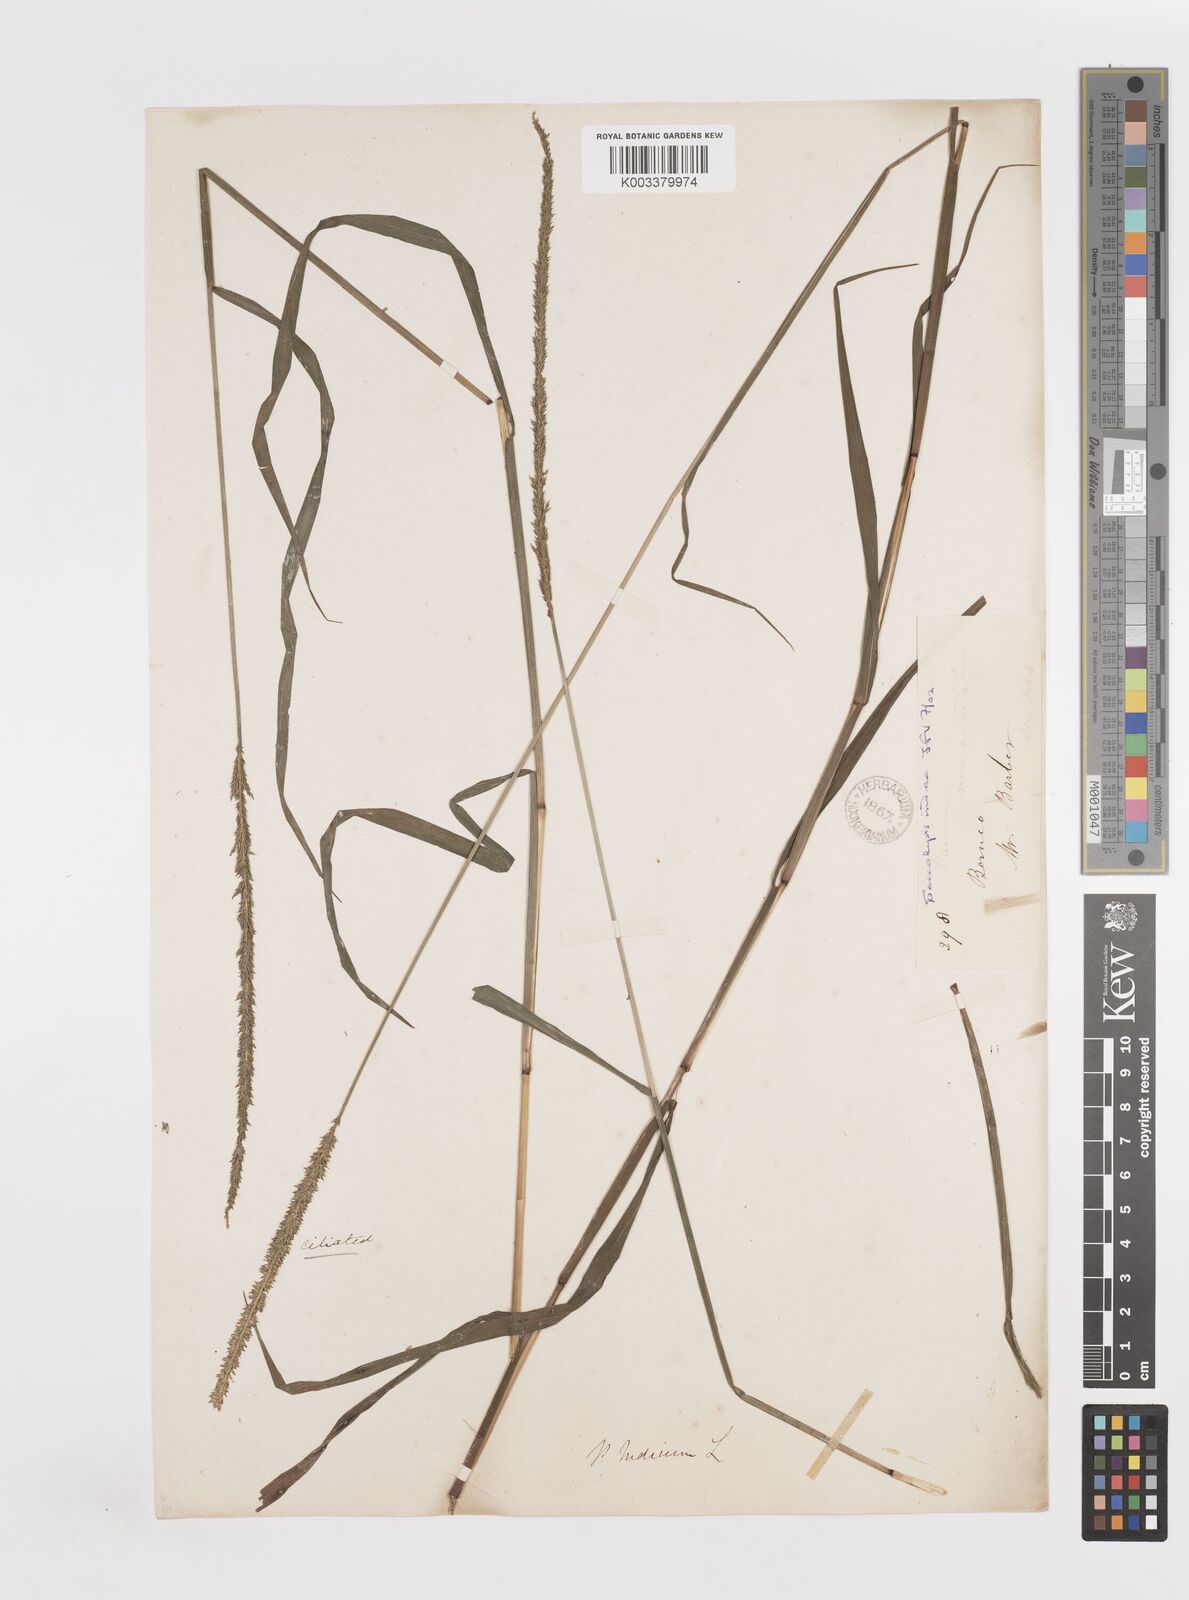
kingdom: Plantae
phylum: Tracheophyta
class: Liliopsida
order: Poales
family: Poaceae
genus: Sacciolepis
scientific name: Sacciolepis indica
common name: Glenwoodgrass
